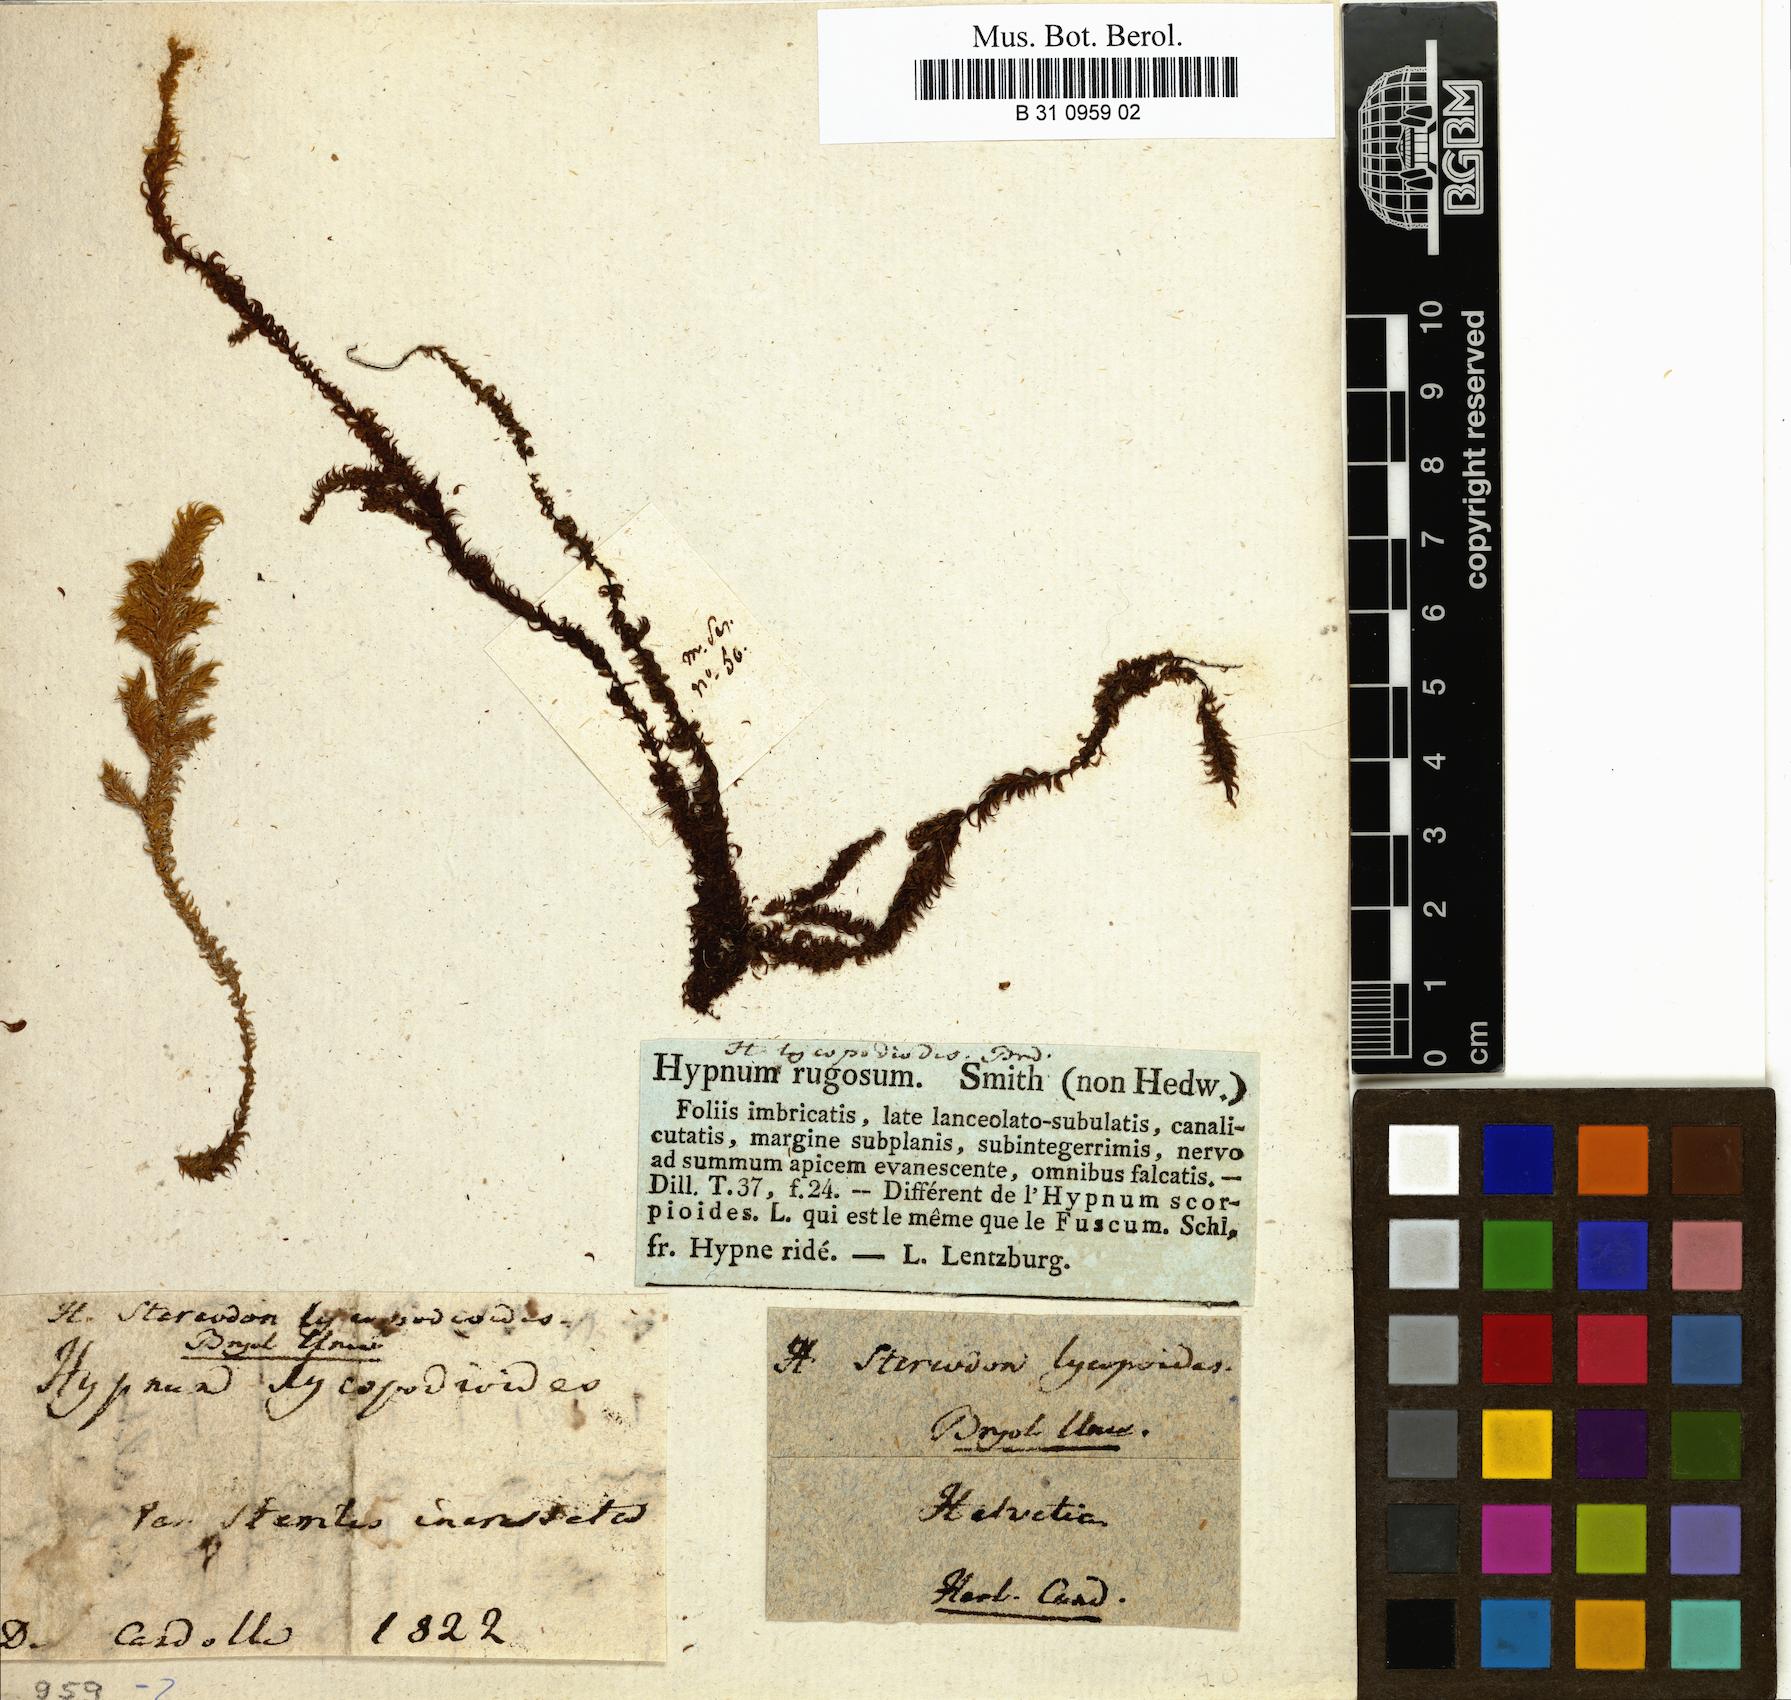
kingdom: Plantae
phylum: Bryophyta
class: Bryopsida
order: Hypnales
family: Amblystegiaceae
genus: Drepanocladus
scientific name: Drepanocladus lycopodioides
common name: Large hook-moss
